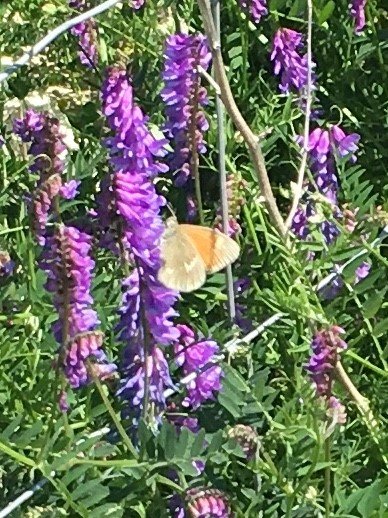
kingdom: Animalia
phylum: Arthropoda
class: Insecta
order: Lepidoptera
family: Nymphalidae
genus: Coenonympha
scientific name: Coenonympha tullia
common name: Large Heath
